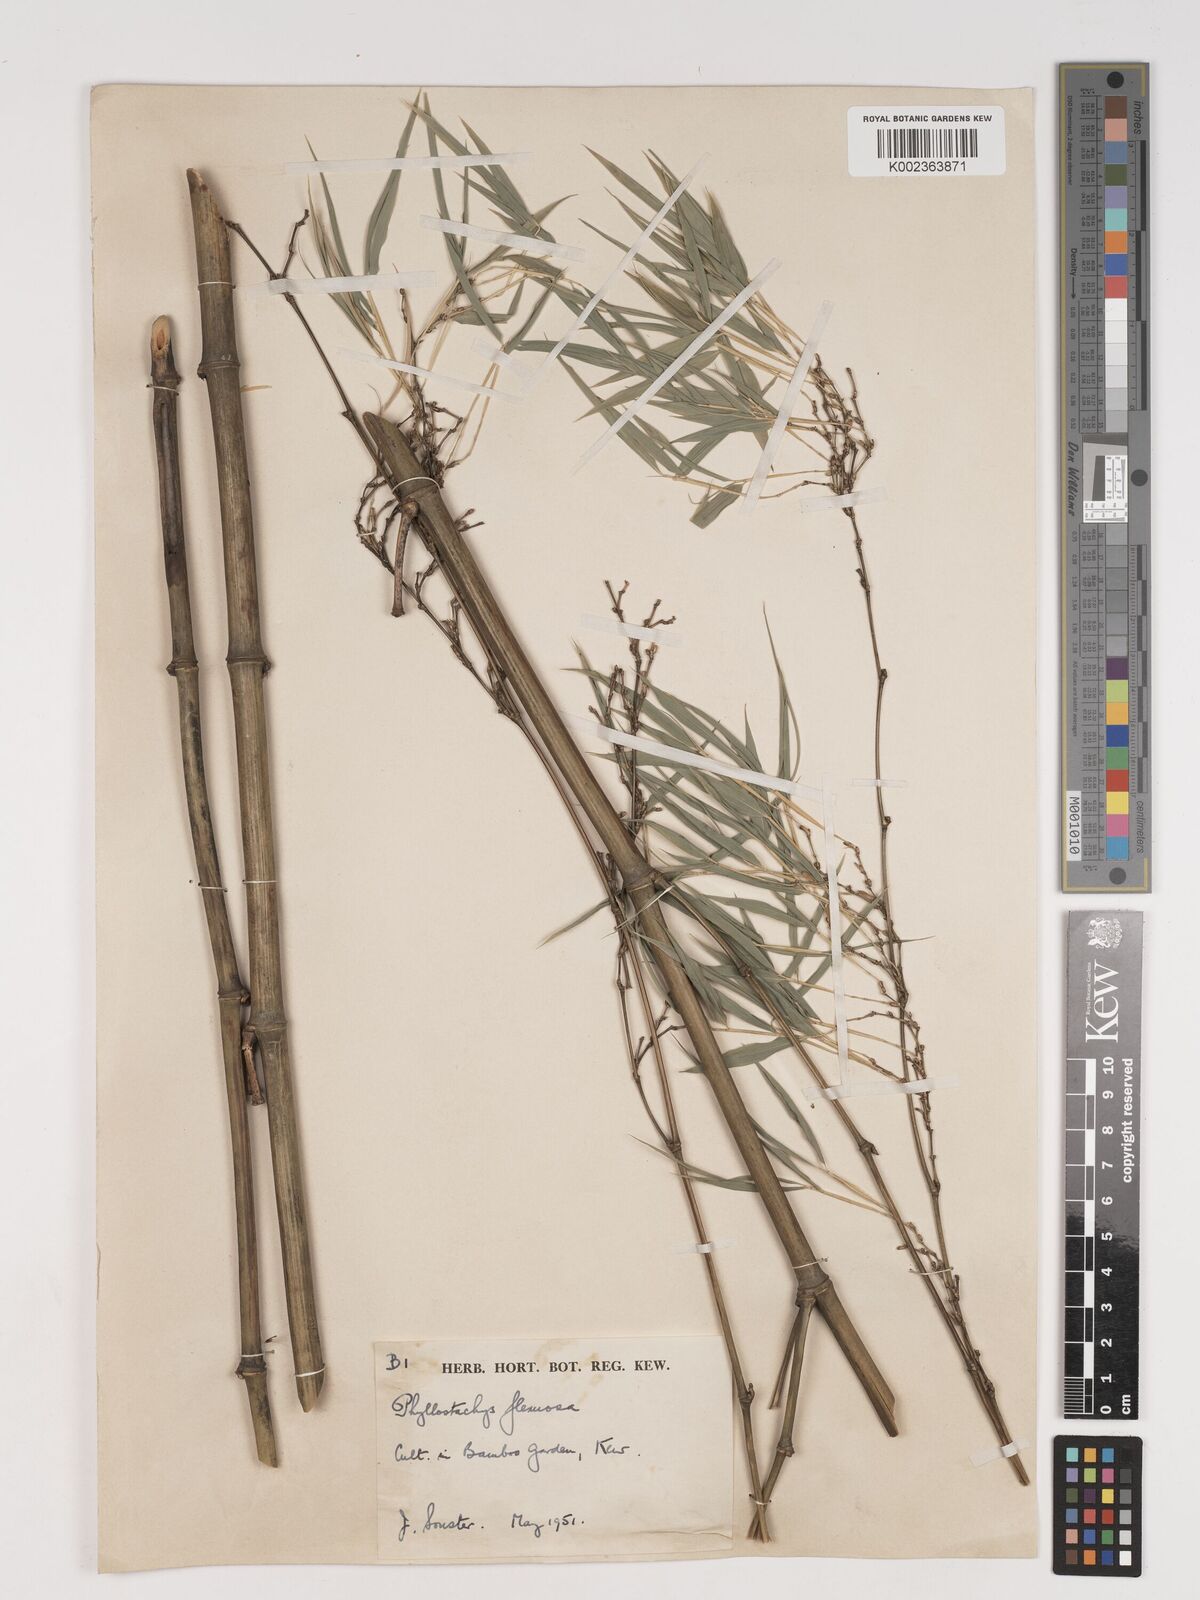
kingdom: Plantae
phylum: Tracheophyta
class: Liliopsida
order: Poales
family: Poaceae
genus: Phyllostachys
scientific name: Phyllostachys flexuosa
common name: Drooping timber bamboo
